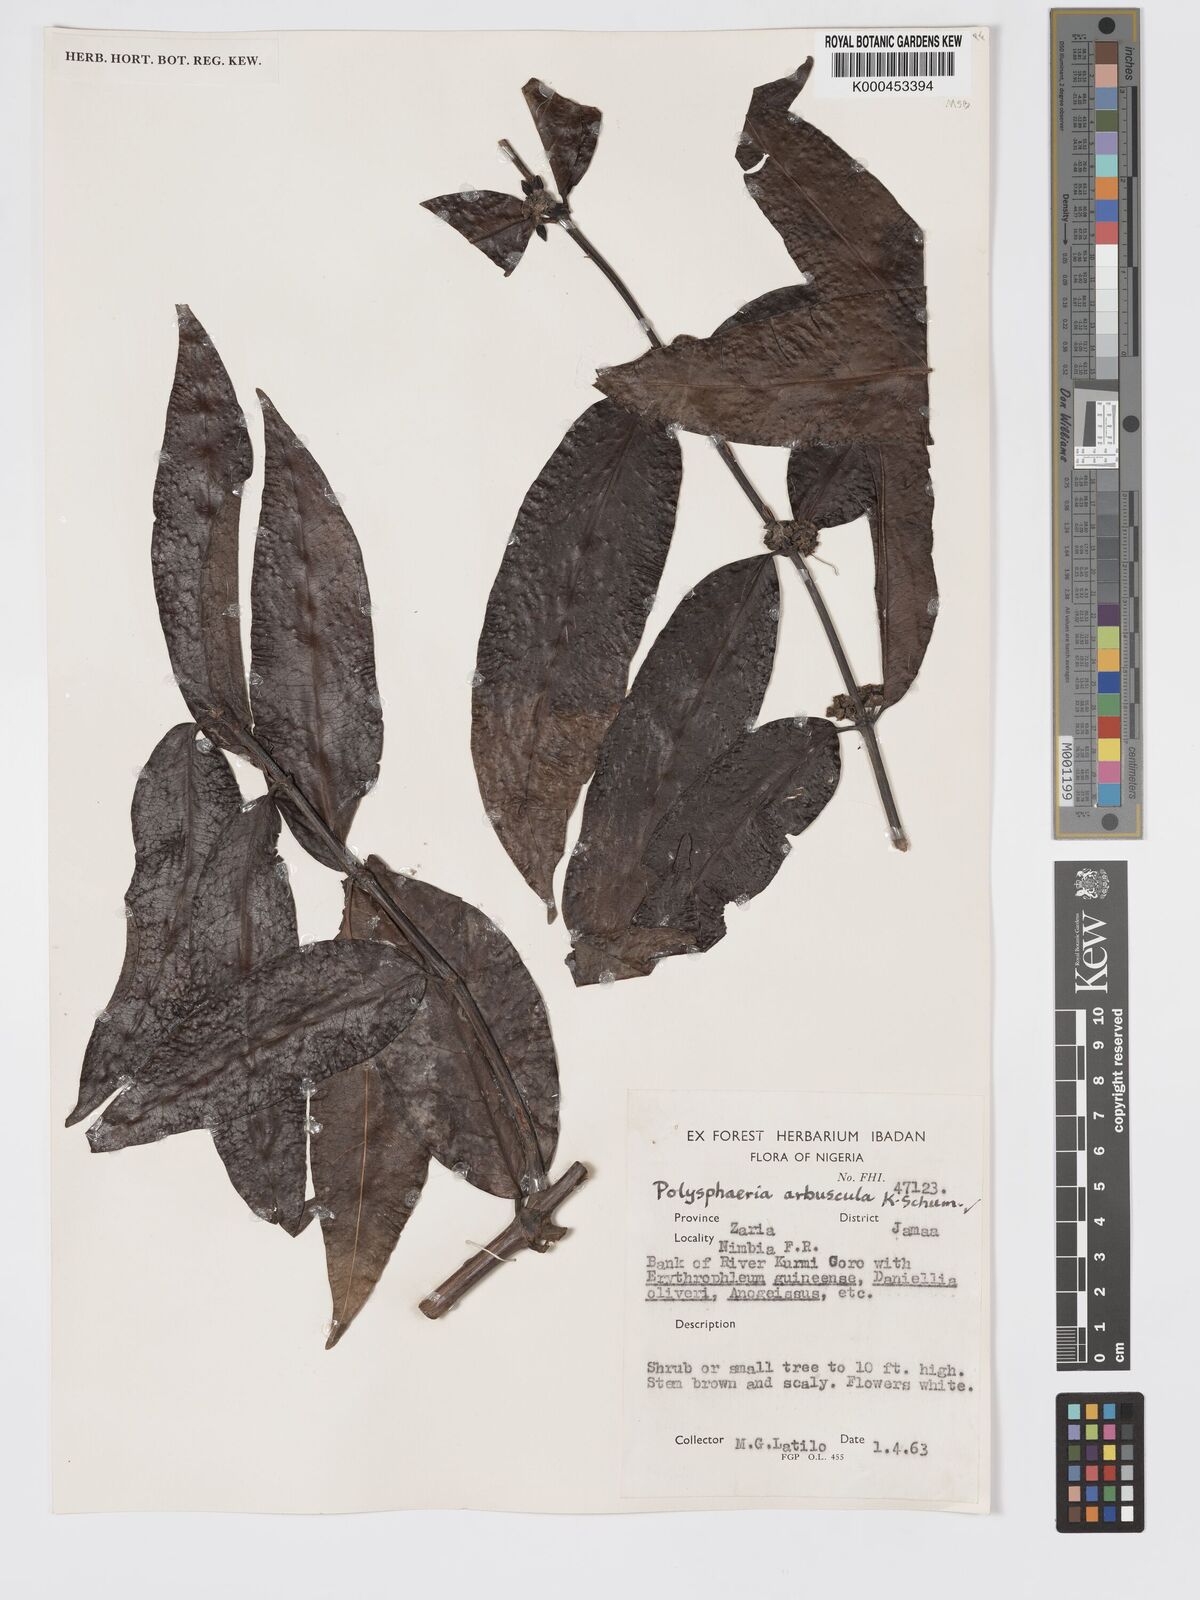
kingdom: Plantae
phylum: Tracheophyta
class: Magnoliopsida
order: Gentianales
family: Rubiaceae
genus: Polysphaeria
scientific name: Polysphaeria arbuscula
